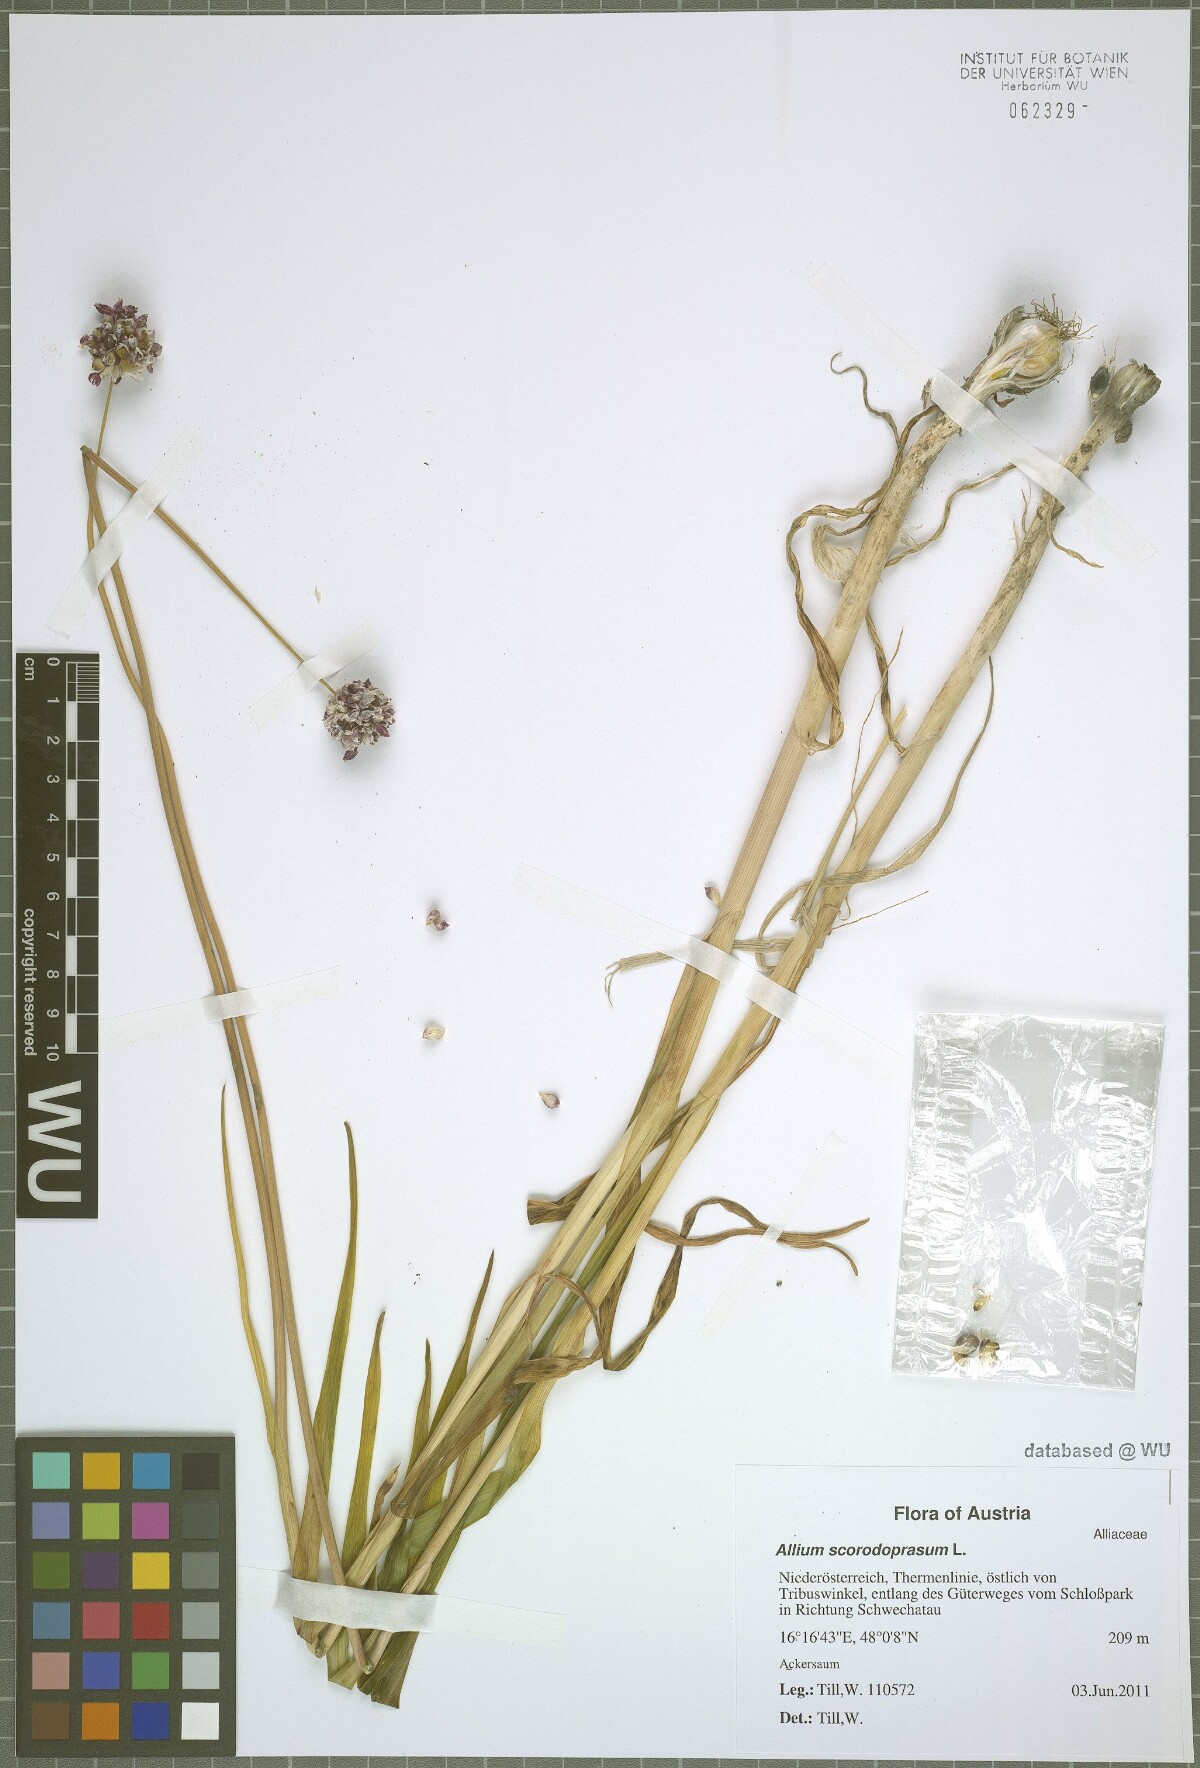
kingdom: Plantae
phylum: Tracheophyta
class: Liliopsida
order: Asparagales
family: Amaryllidaceae
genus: Allium
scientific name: Allium scorodoprasum
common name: Sand leek
